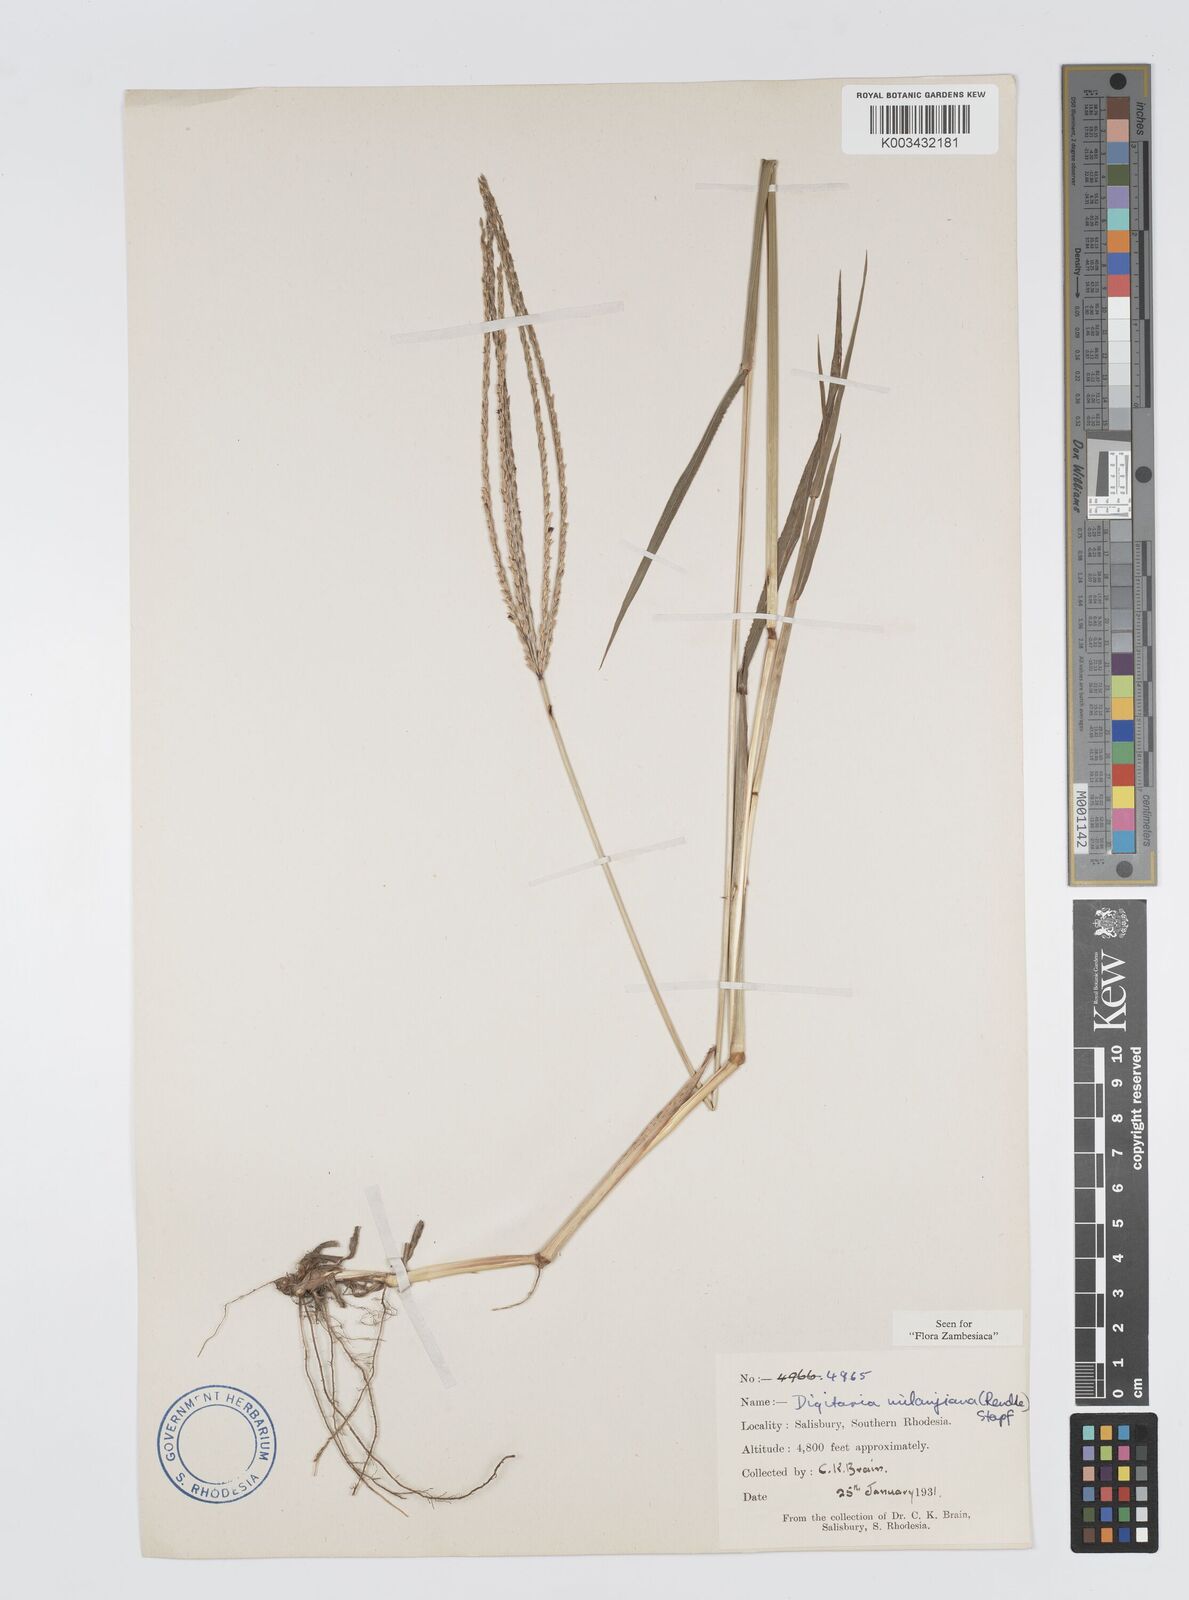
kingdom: Plantae
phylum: Tracheophyta
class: Liliopsida
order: Poales
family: Poaceae
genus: Digitaria
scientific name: Digitaria milanjiana
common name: Madagascar crabgrass
